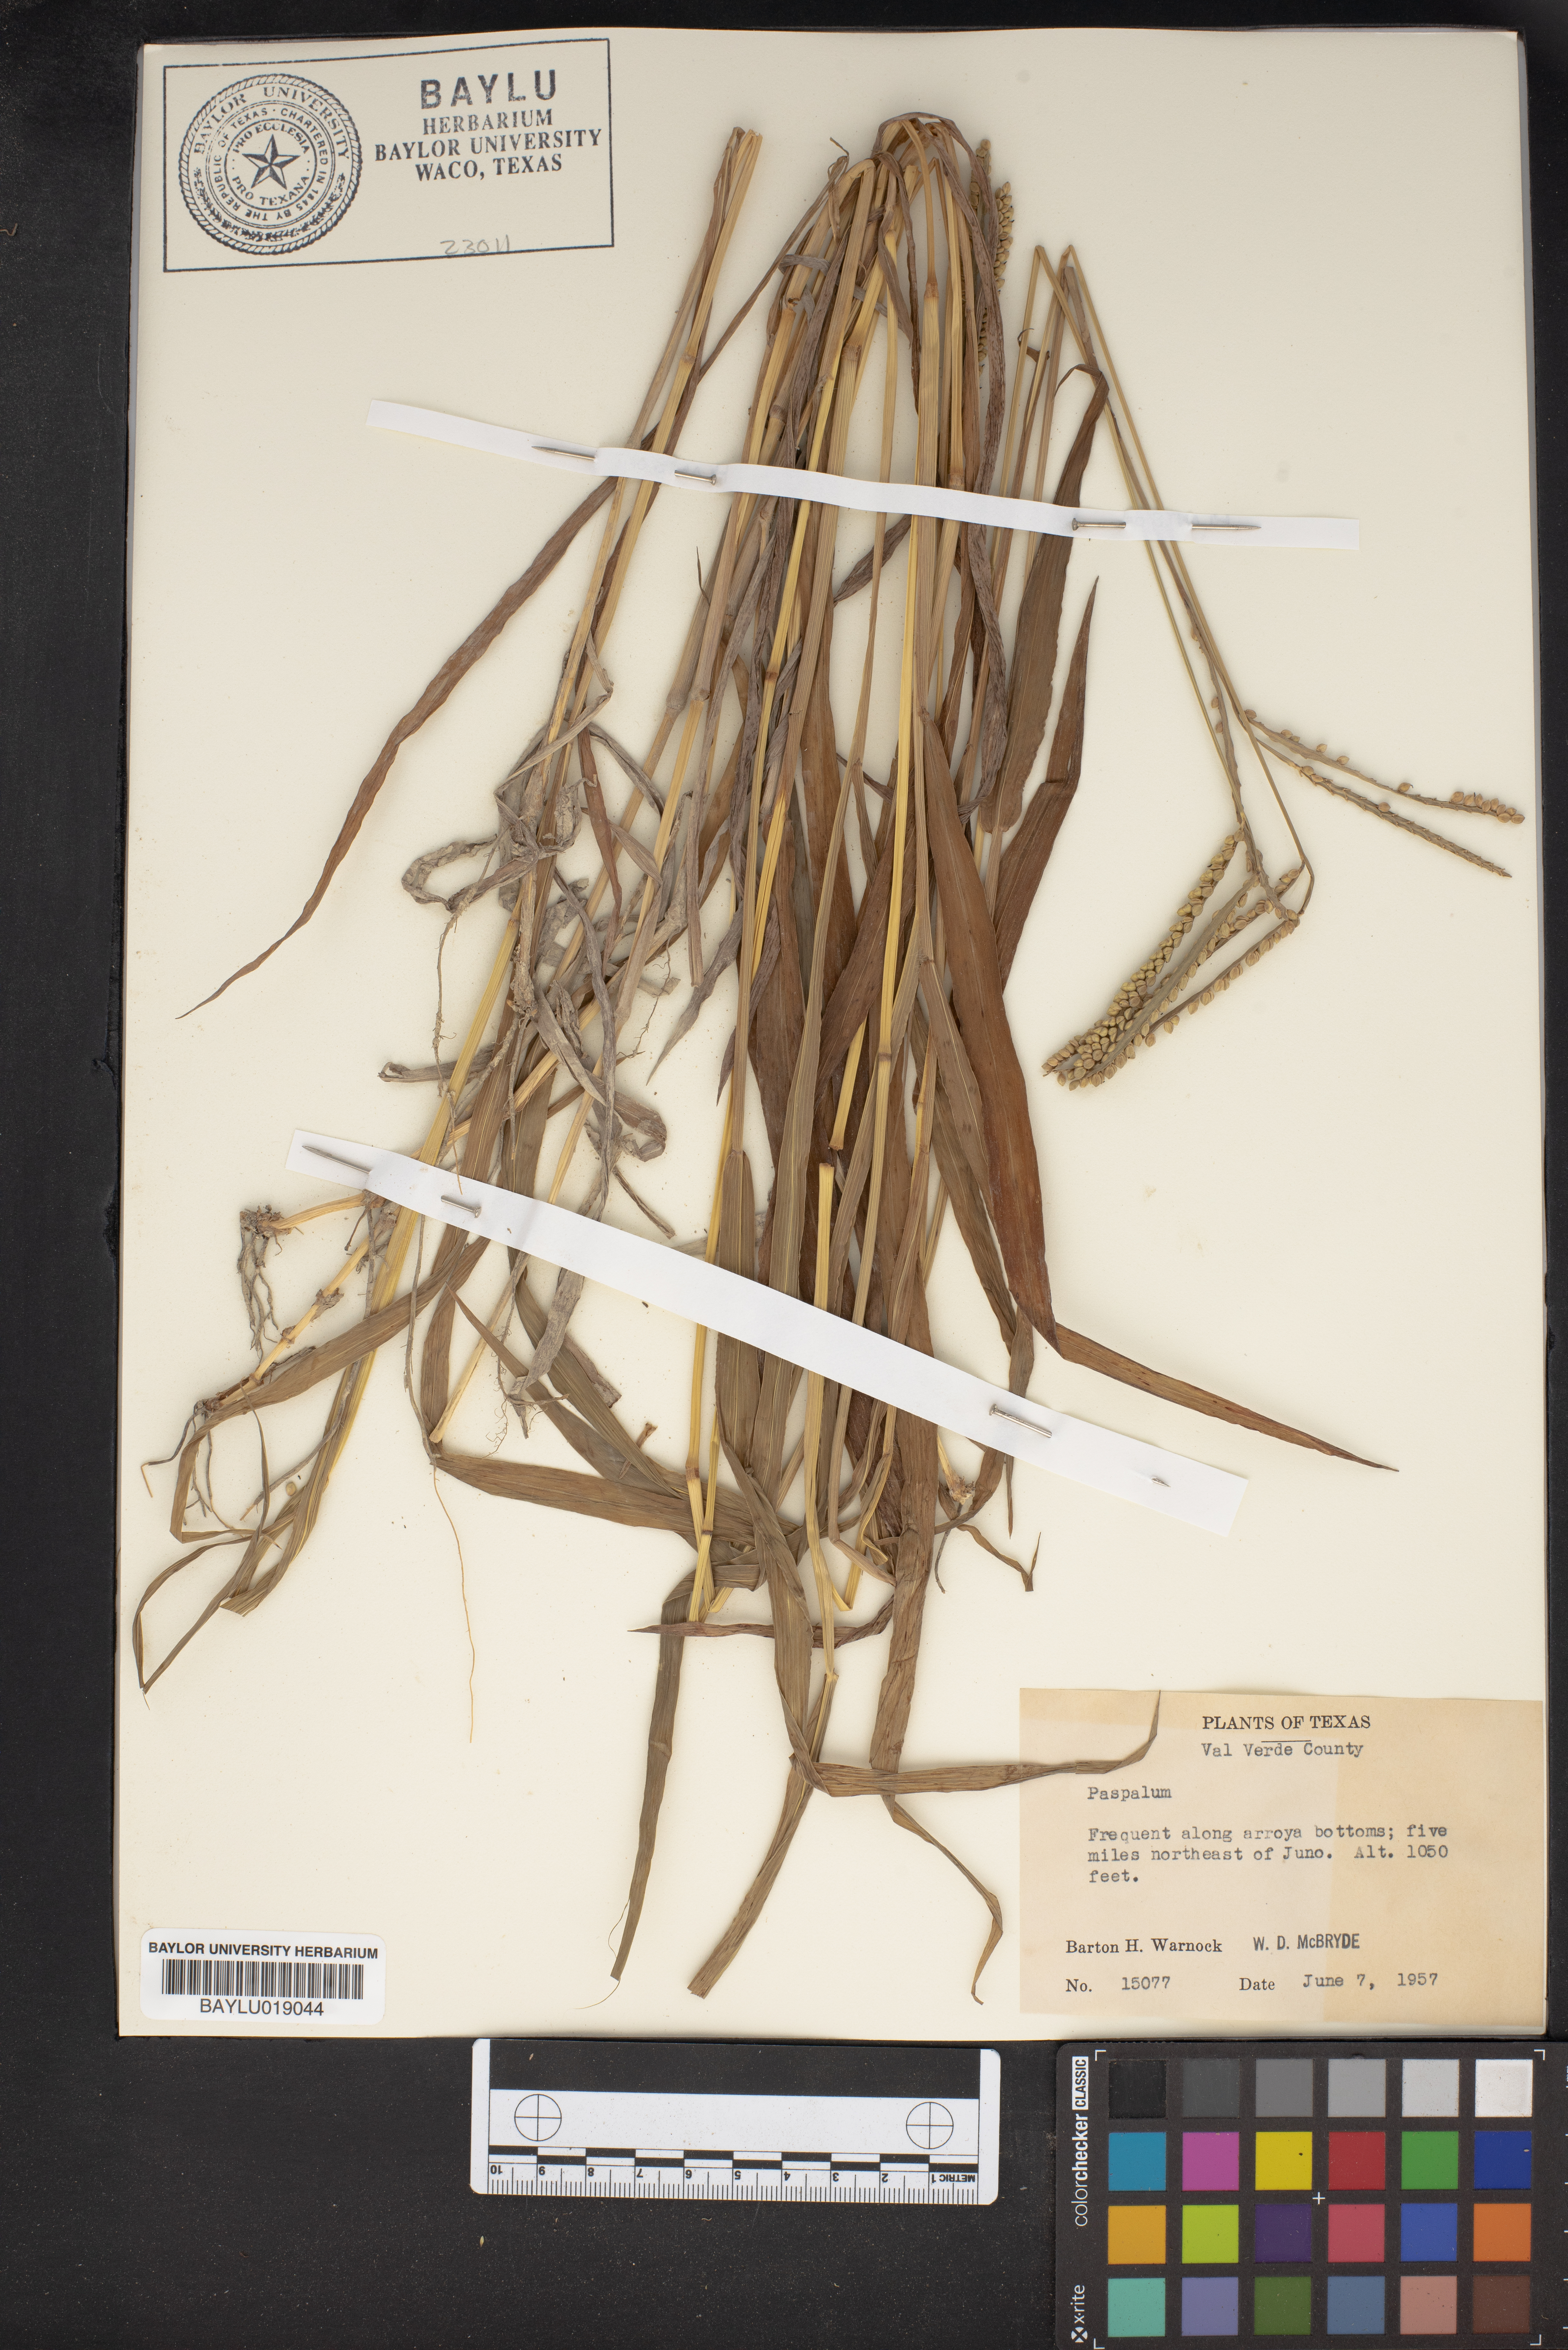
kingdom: Plantae
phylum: Tracheophyta
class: Liliopsida
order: Poales
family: Poaceae
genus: Paspalum
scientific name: Paspalum
